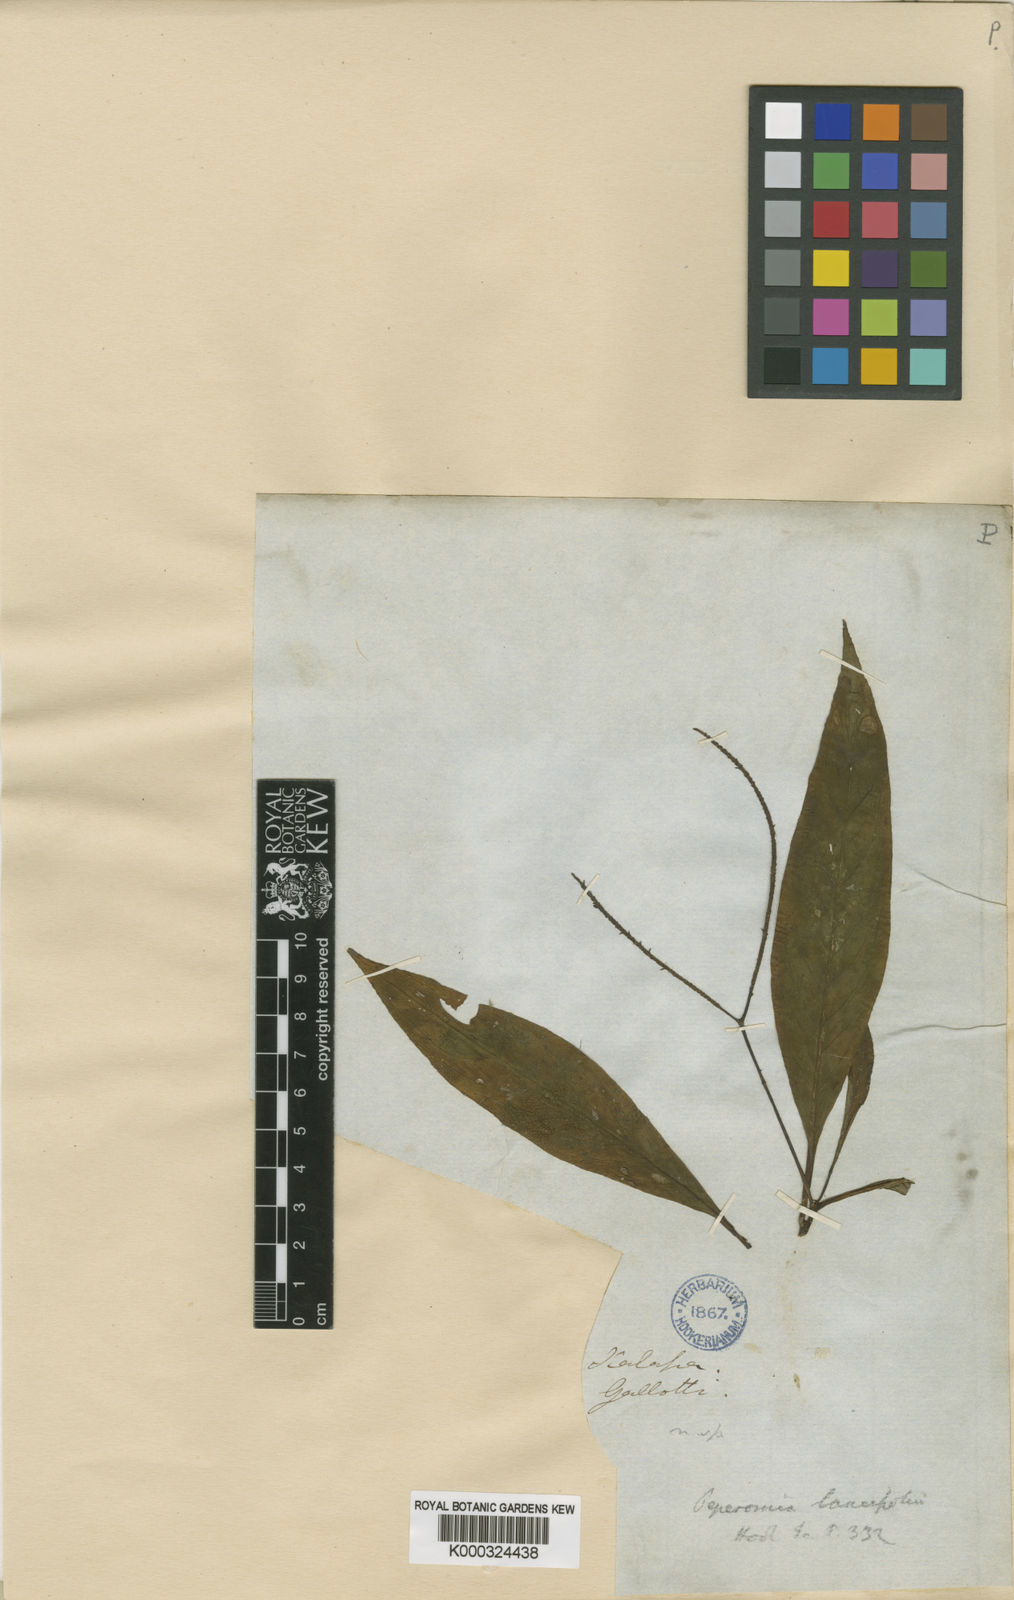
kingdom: Plantae
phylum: Tracheophyta
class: Magnoliopsida
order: Piperales
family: Piperaceae
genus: Peperomia
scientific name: Peperomia lancifolia
